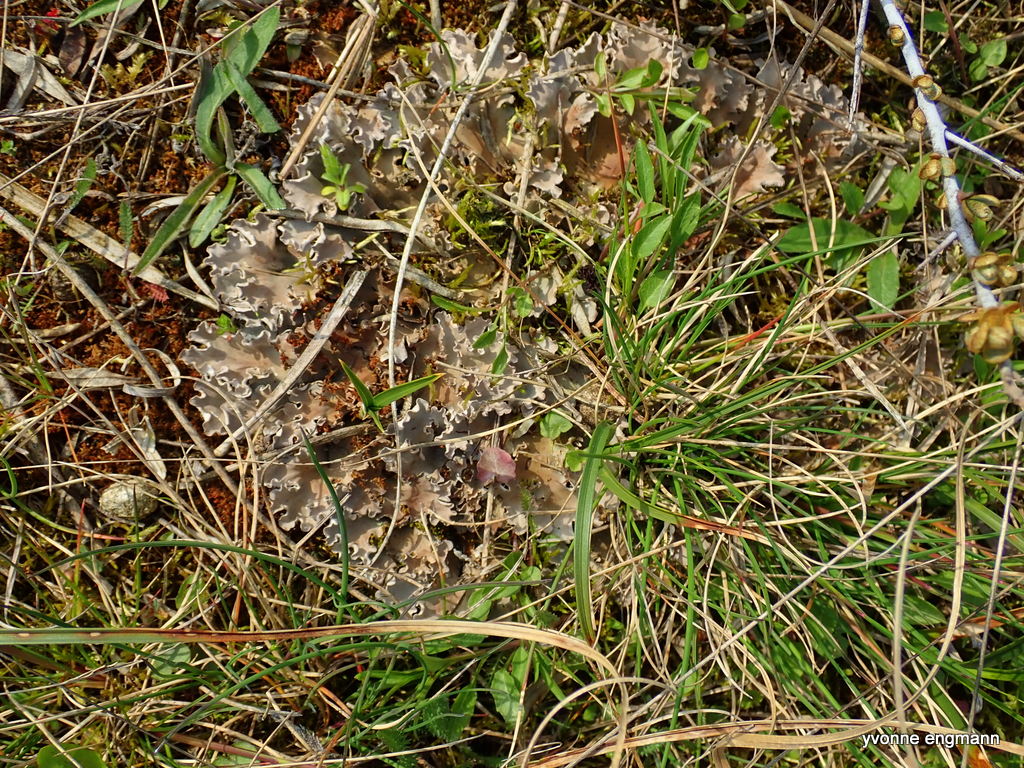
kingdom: Fungi
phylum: Ascomycota
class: Lecanoromycetes
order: Peltigerales
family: Peltigeraceae
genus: Peltigera
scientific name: Peltigera canina
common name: hunde-skjoldlav
